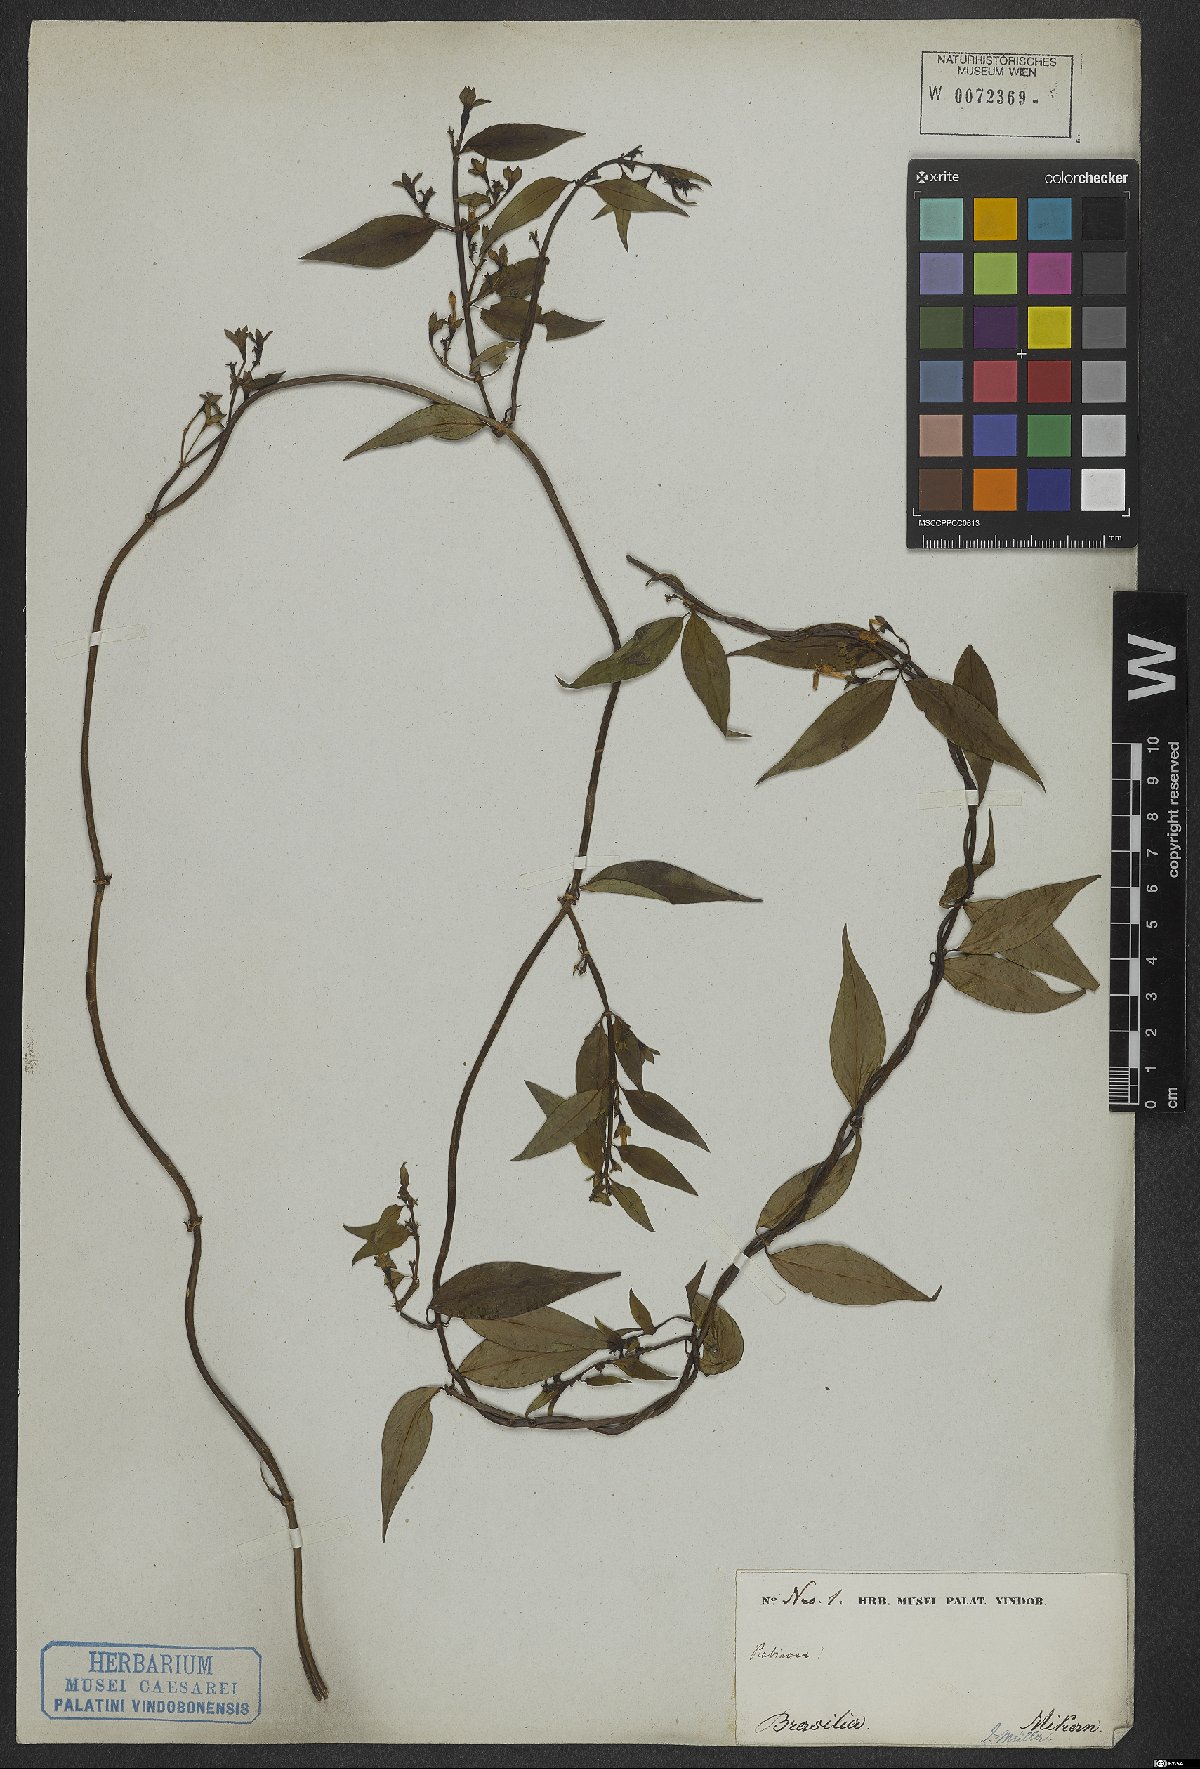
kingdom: Plantae
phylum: Tracheophyta
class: Magnoliopsida
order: Gentianales
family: Rubiaceae
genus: Manettia
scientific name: Manettia
